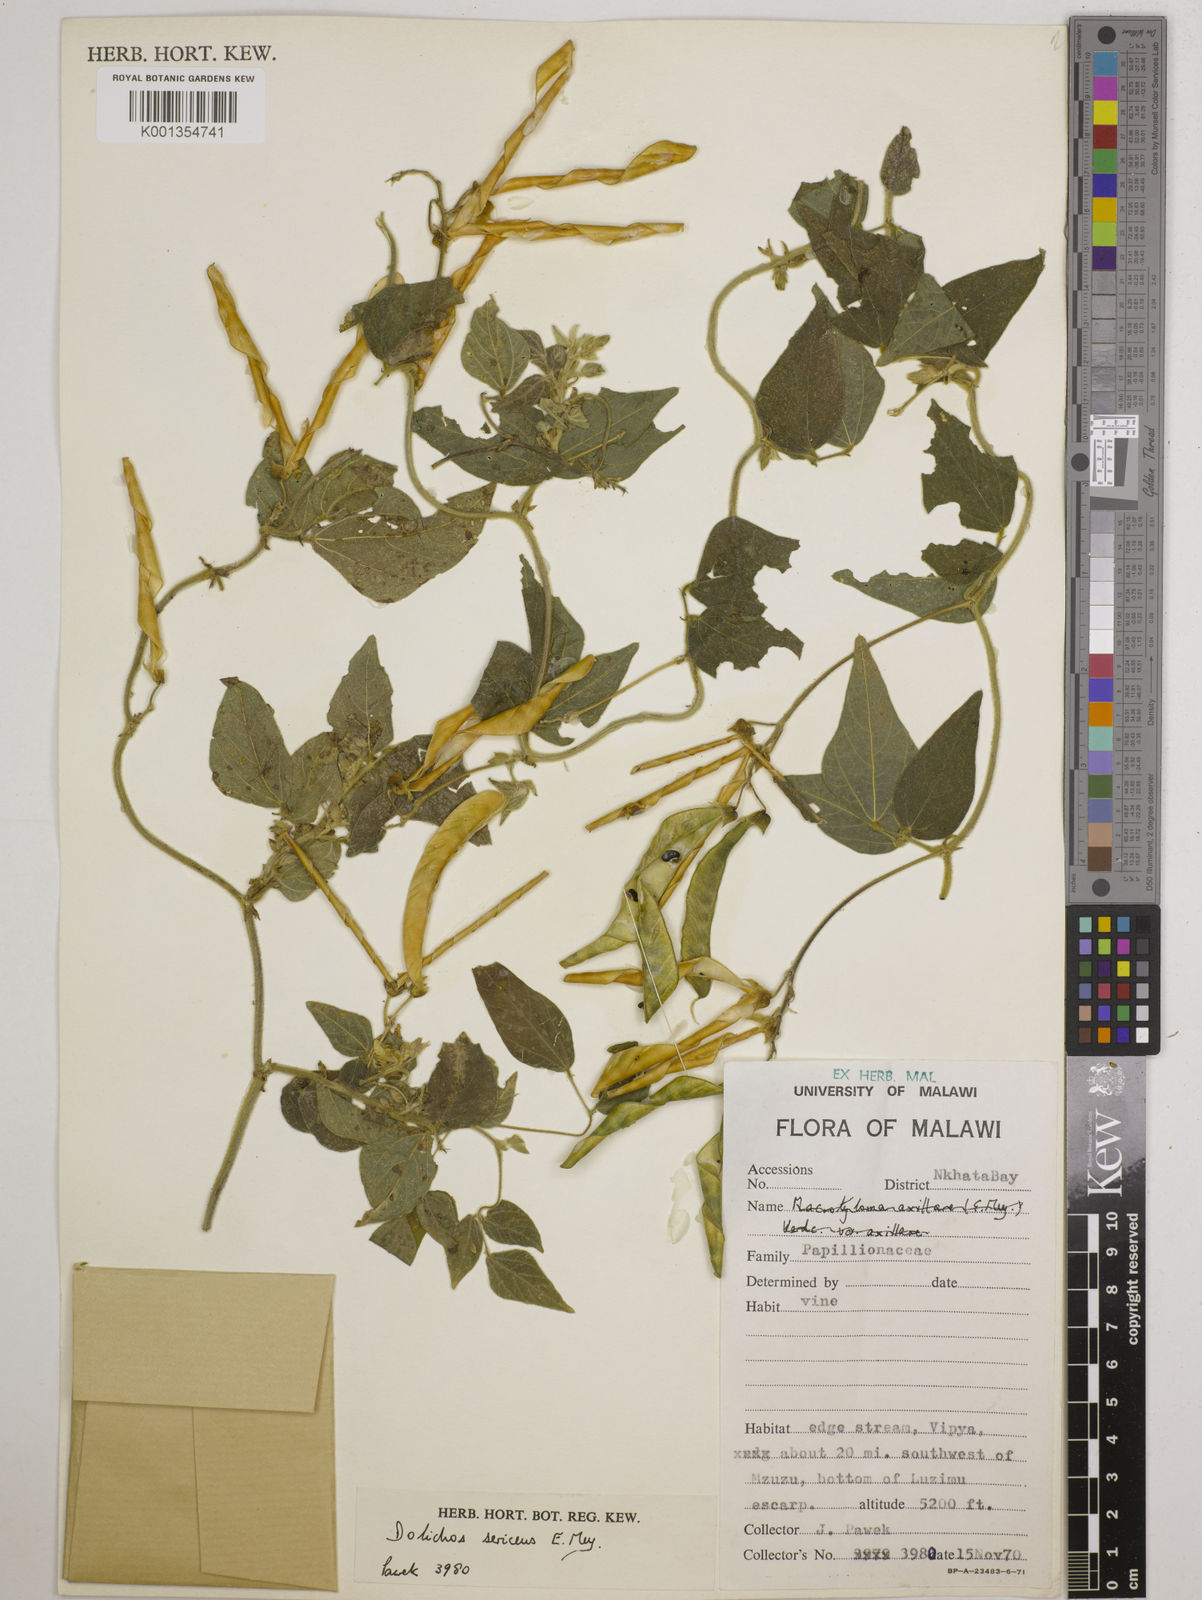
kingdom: Plantae
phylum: Tracheophyta
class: Magnoliopsida
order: Fabales
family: Fabaceae
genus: Dolichos
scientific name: Dolichos
